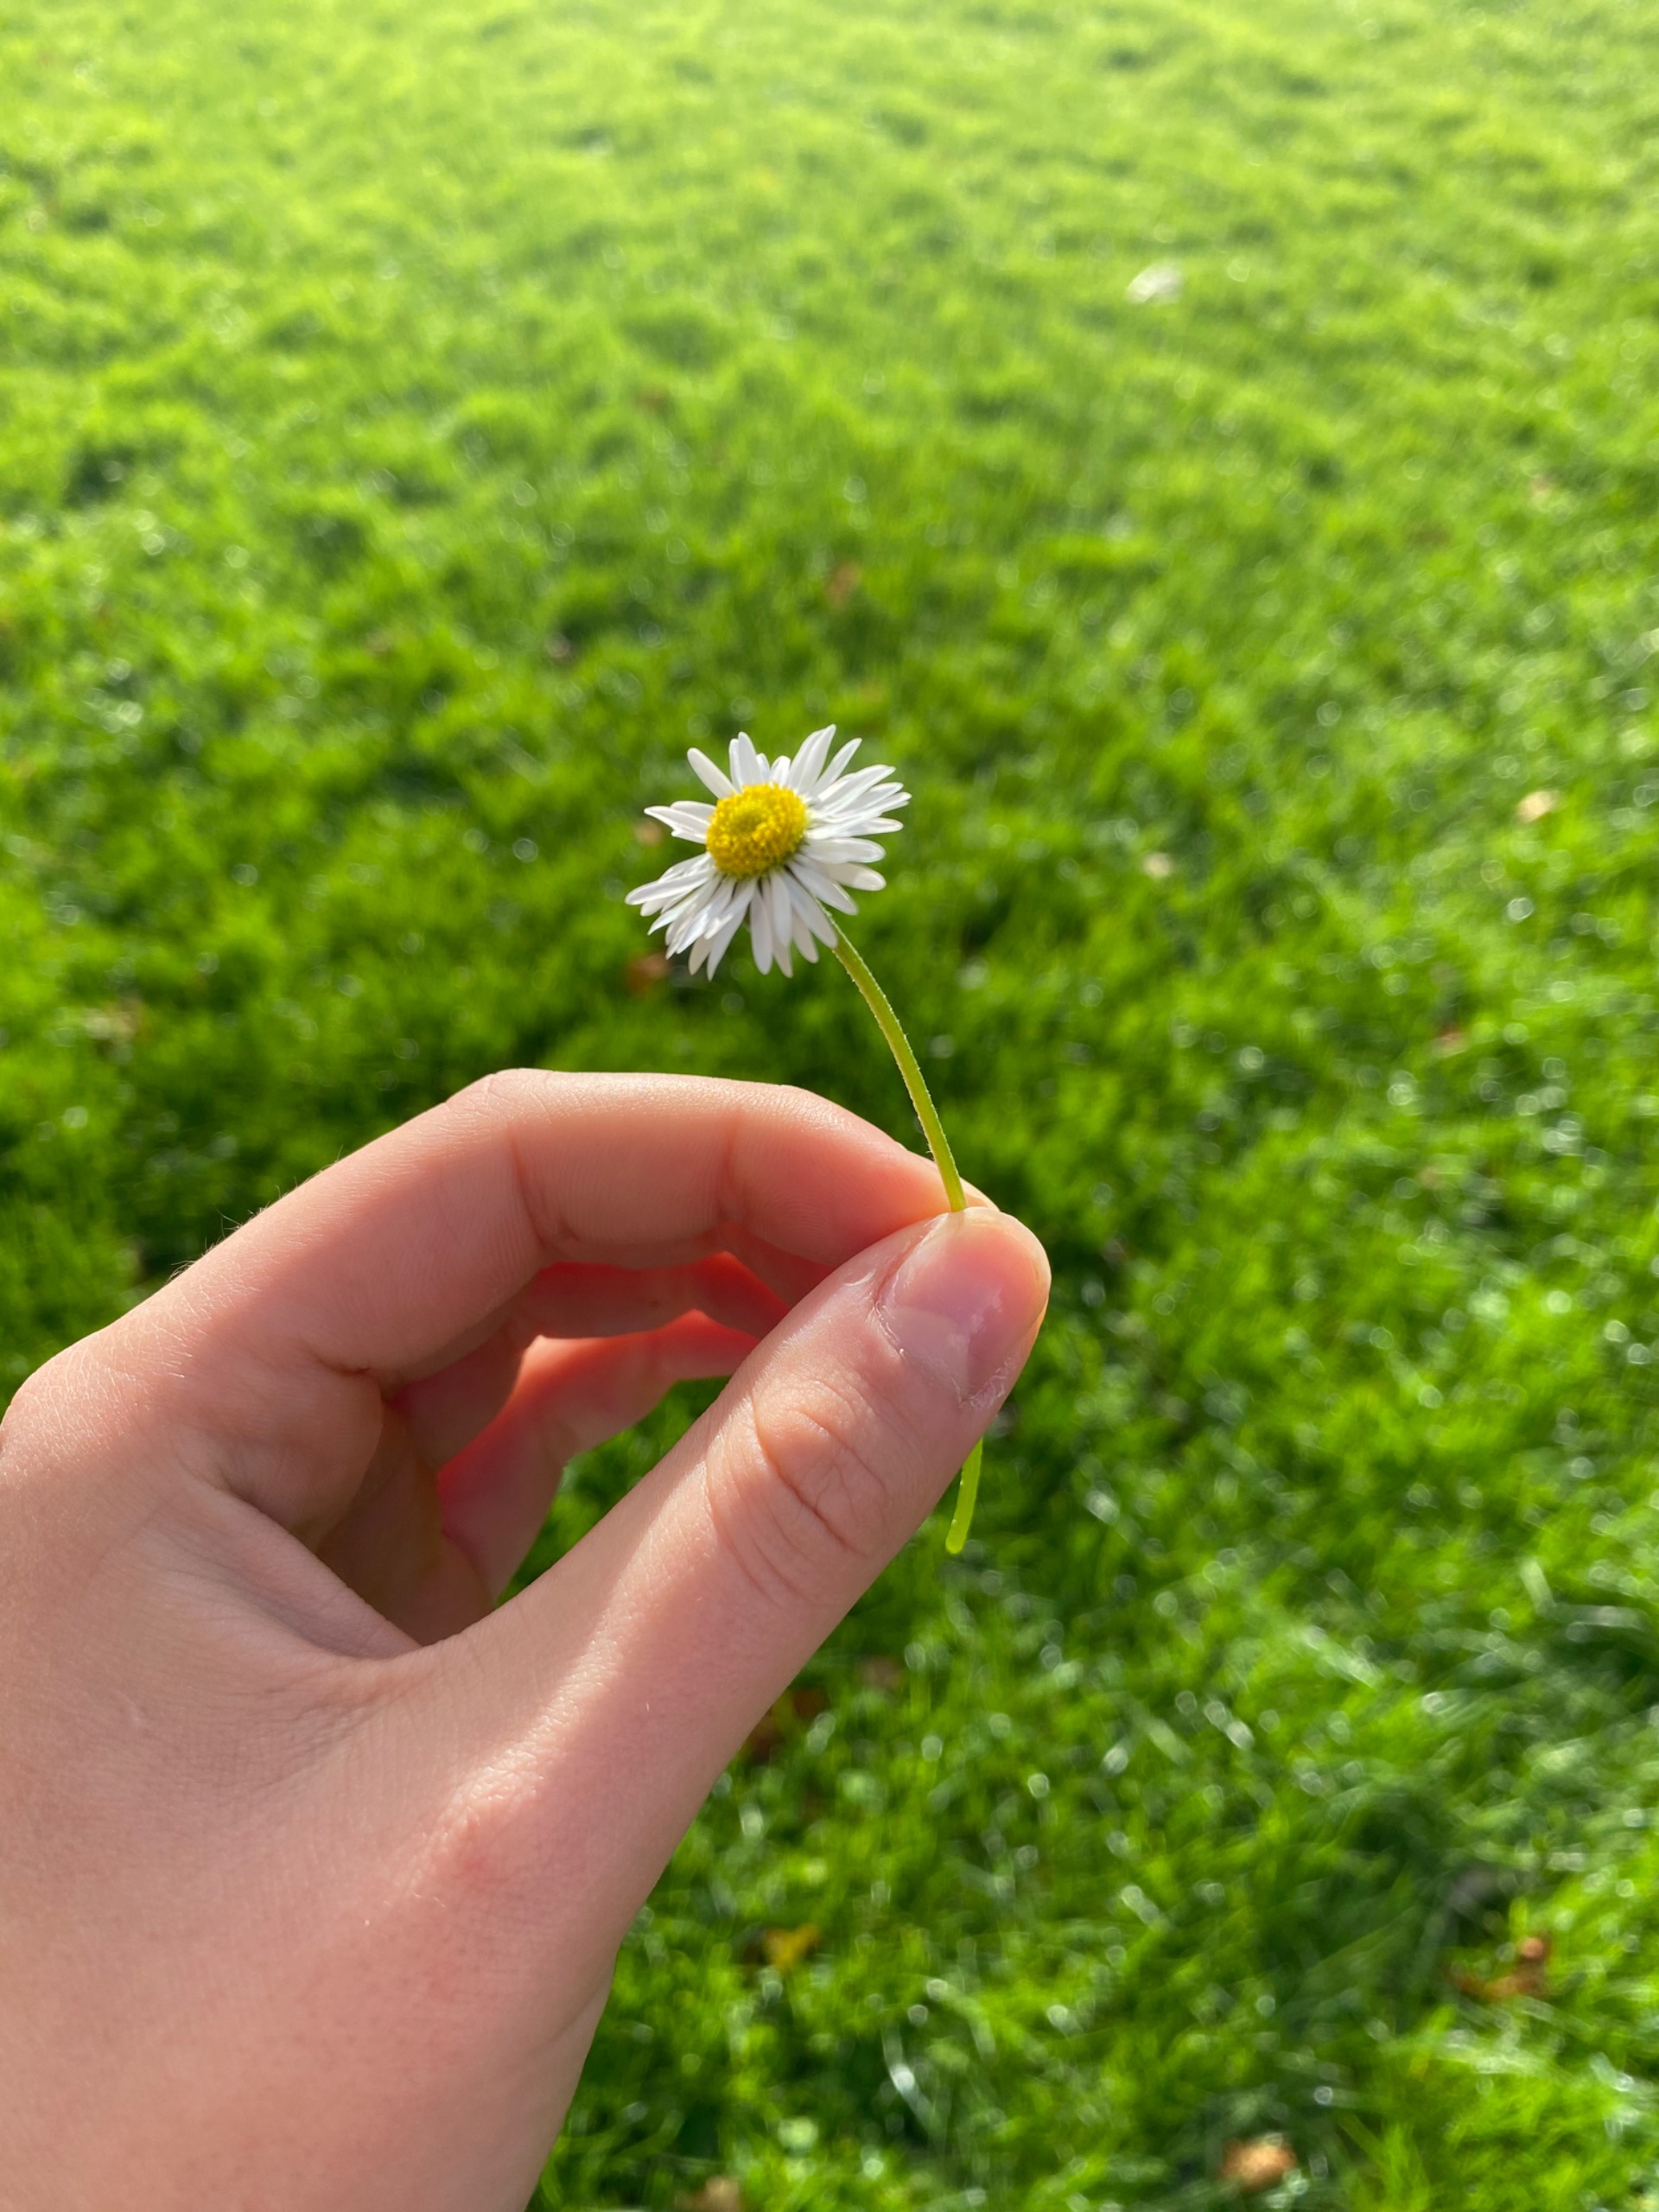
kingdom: Plantae
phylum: Tracheophyta
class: Magnoliopsida
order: Asterales
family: Asteraceae
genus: Bellis
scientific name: Bellis perennis
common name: Tusindfryd
